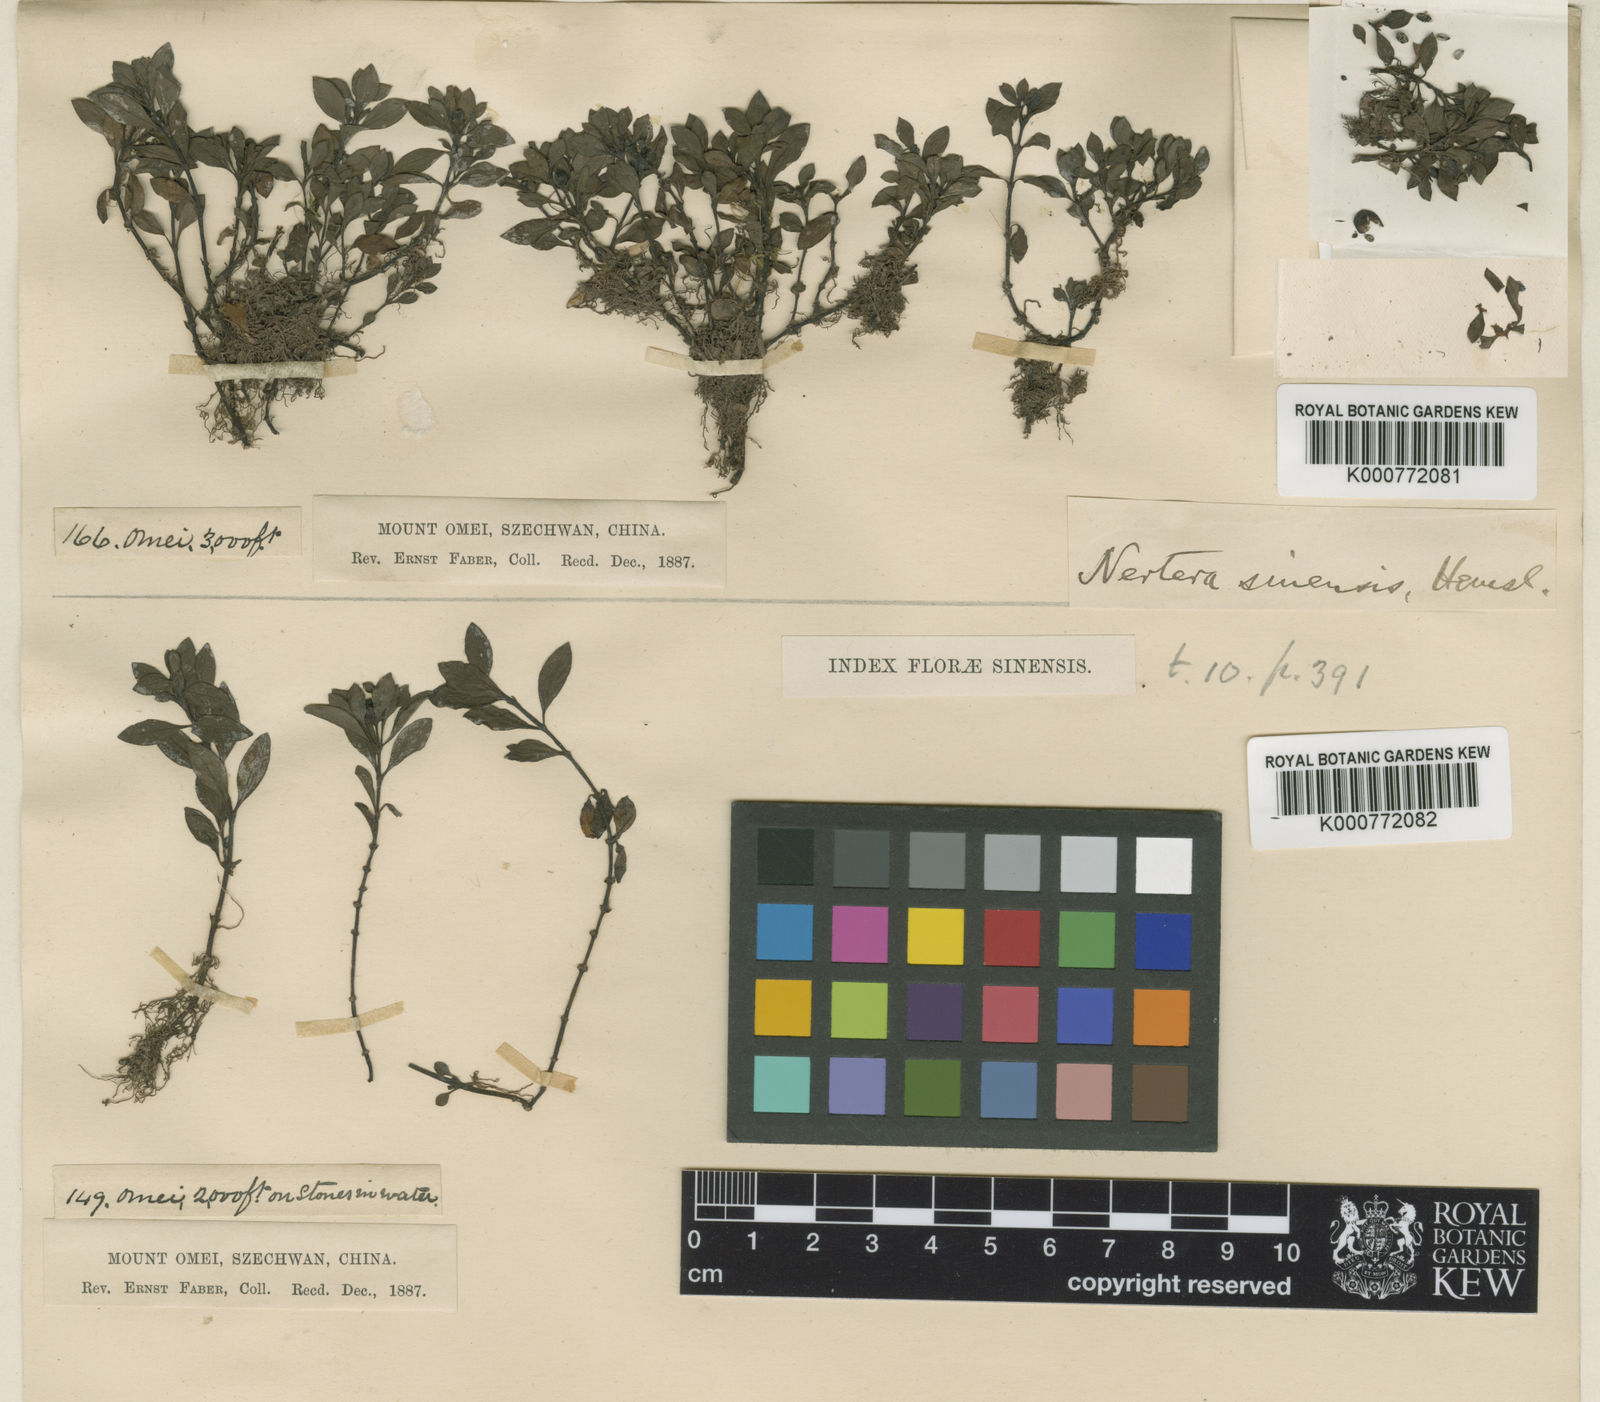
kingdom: Plantae
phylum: Tracheophyta
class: Magnoliopsida
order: Gentianales
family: Rubiaceae
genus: Nertera
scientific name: Nertera sinensis
